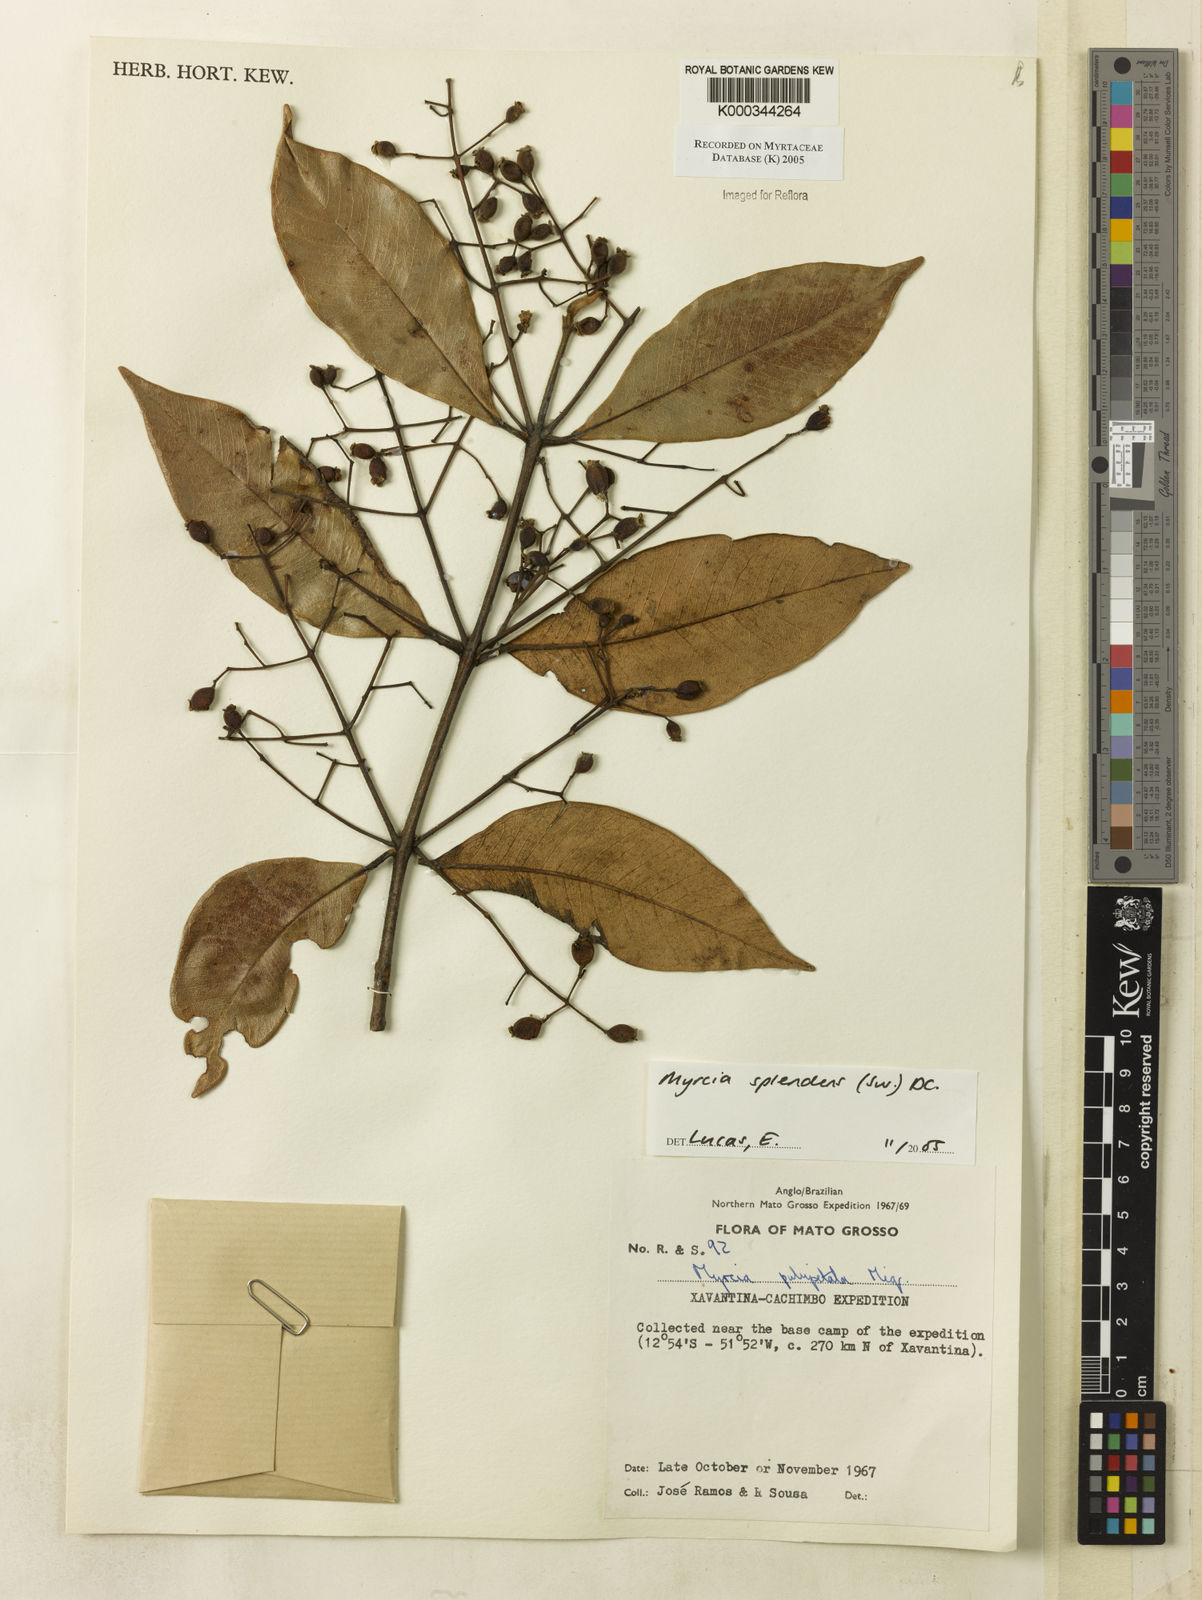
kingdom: Plantae
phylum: Tracheophyta
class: Magnoliopsida
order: Myrtales
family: Myrtaceae
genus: Myrcia
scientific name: Myrcia splendens
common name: Surinam cherry
